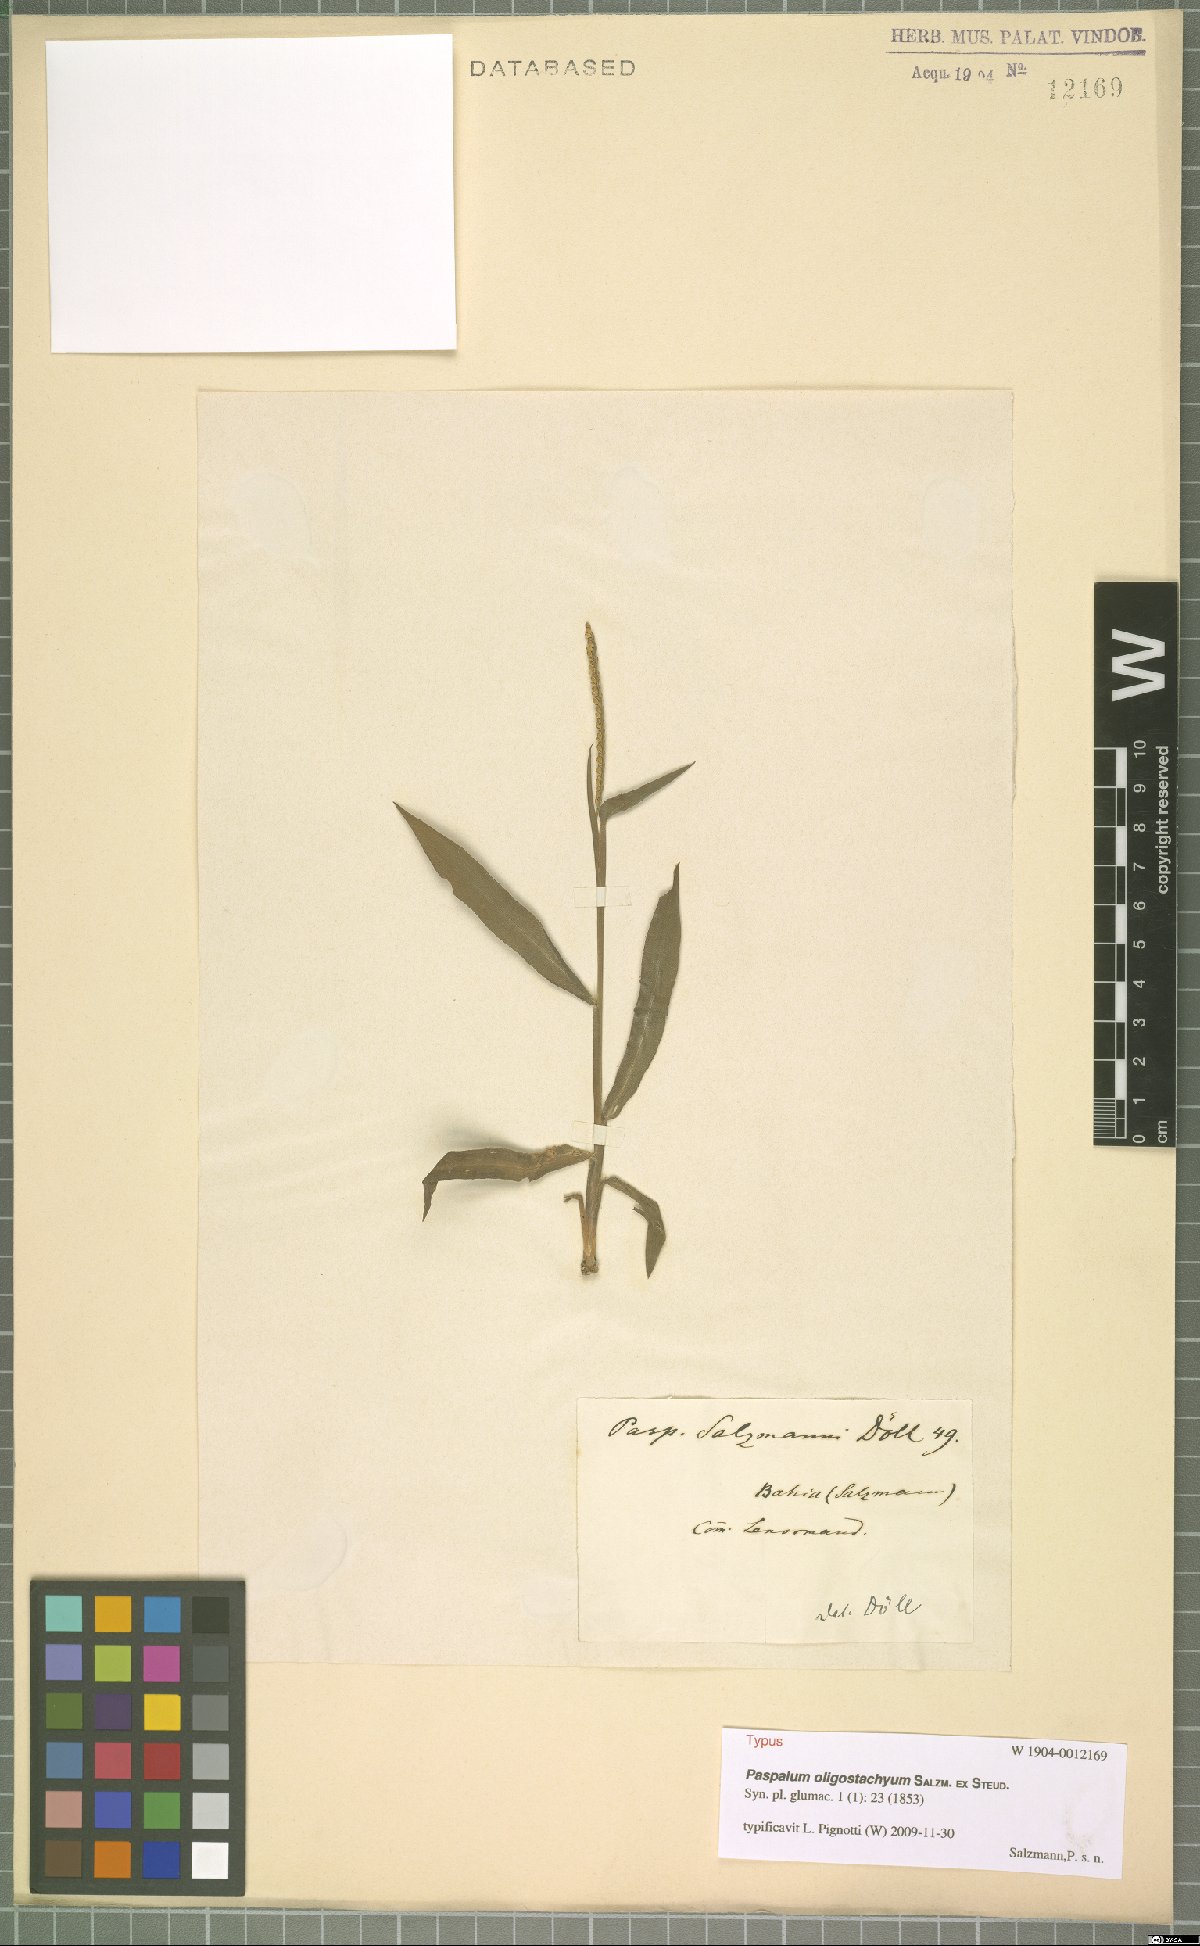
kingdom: Plantae
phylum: Tracheophyta
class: Liliopsida
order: Poales
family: Poaceae
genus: Paspalum
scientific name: Paspalum oligostachyum
